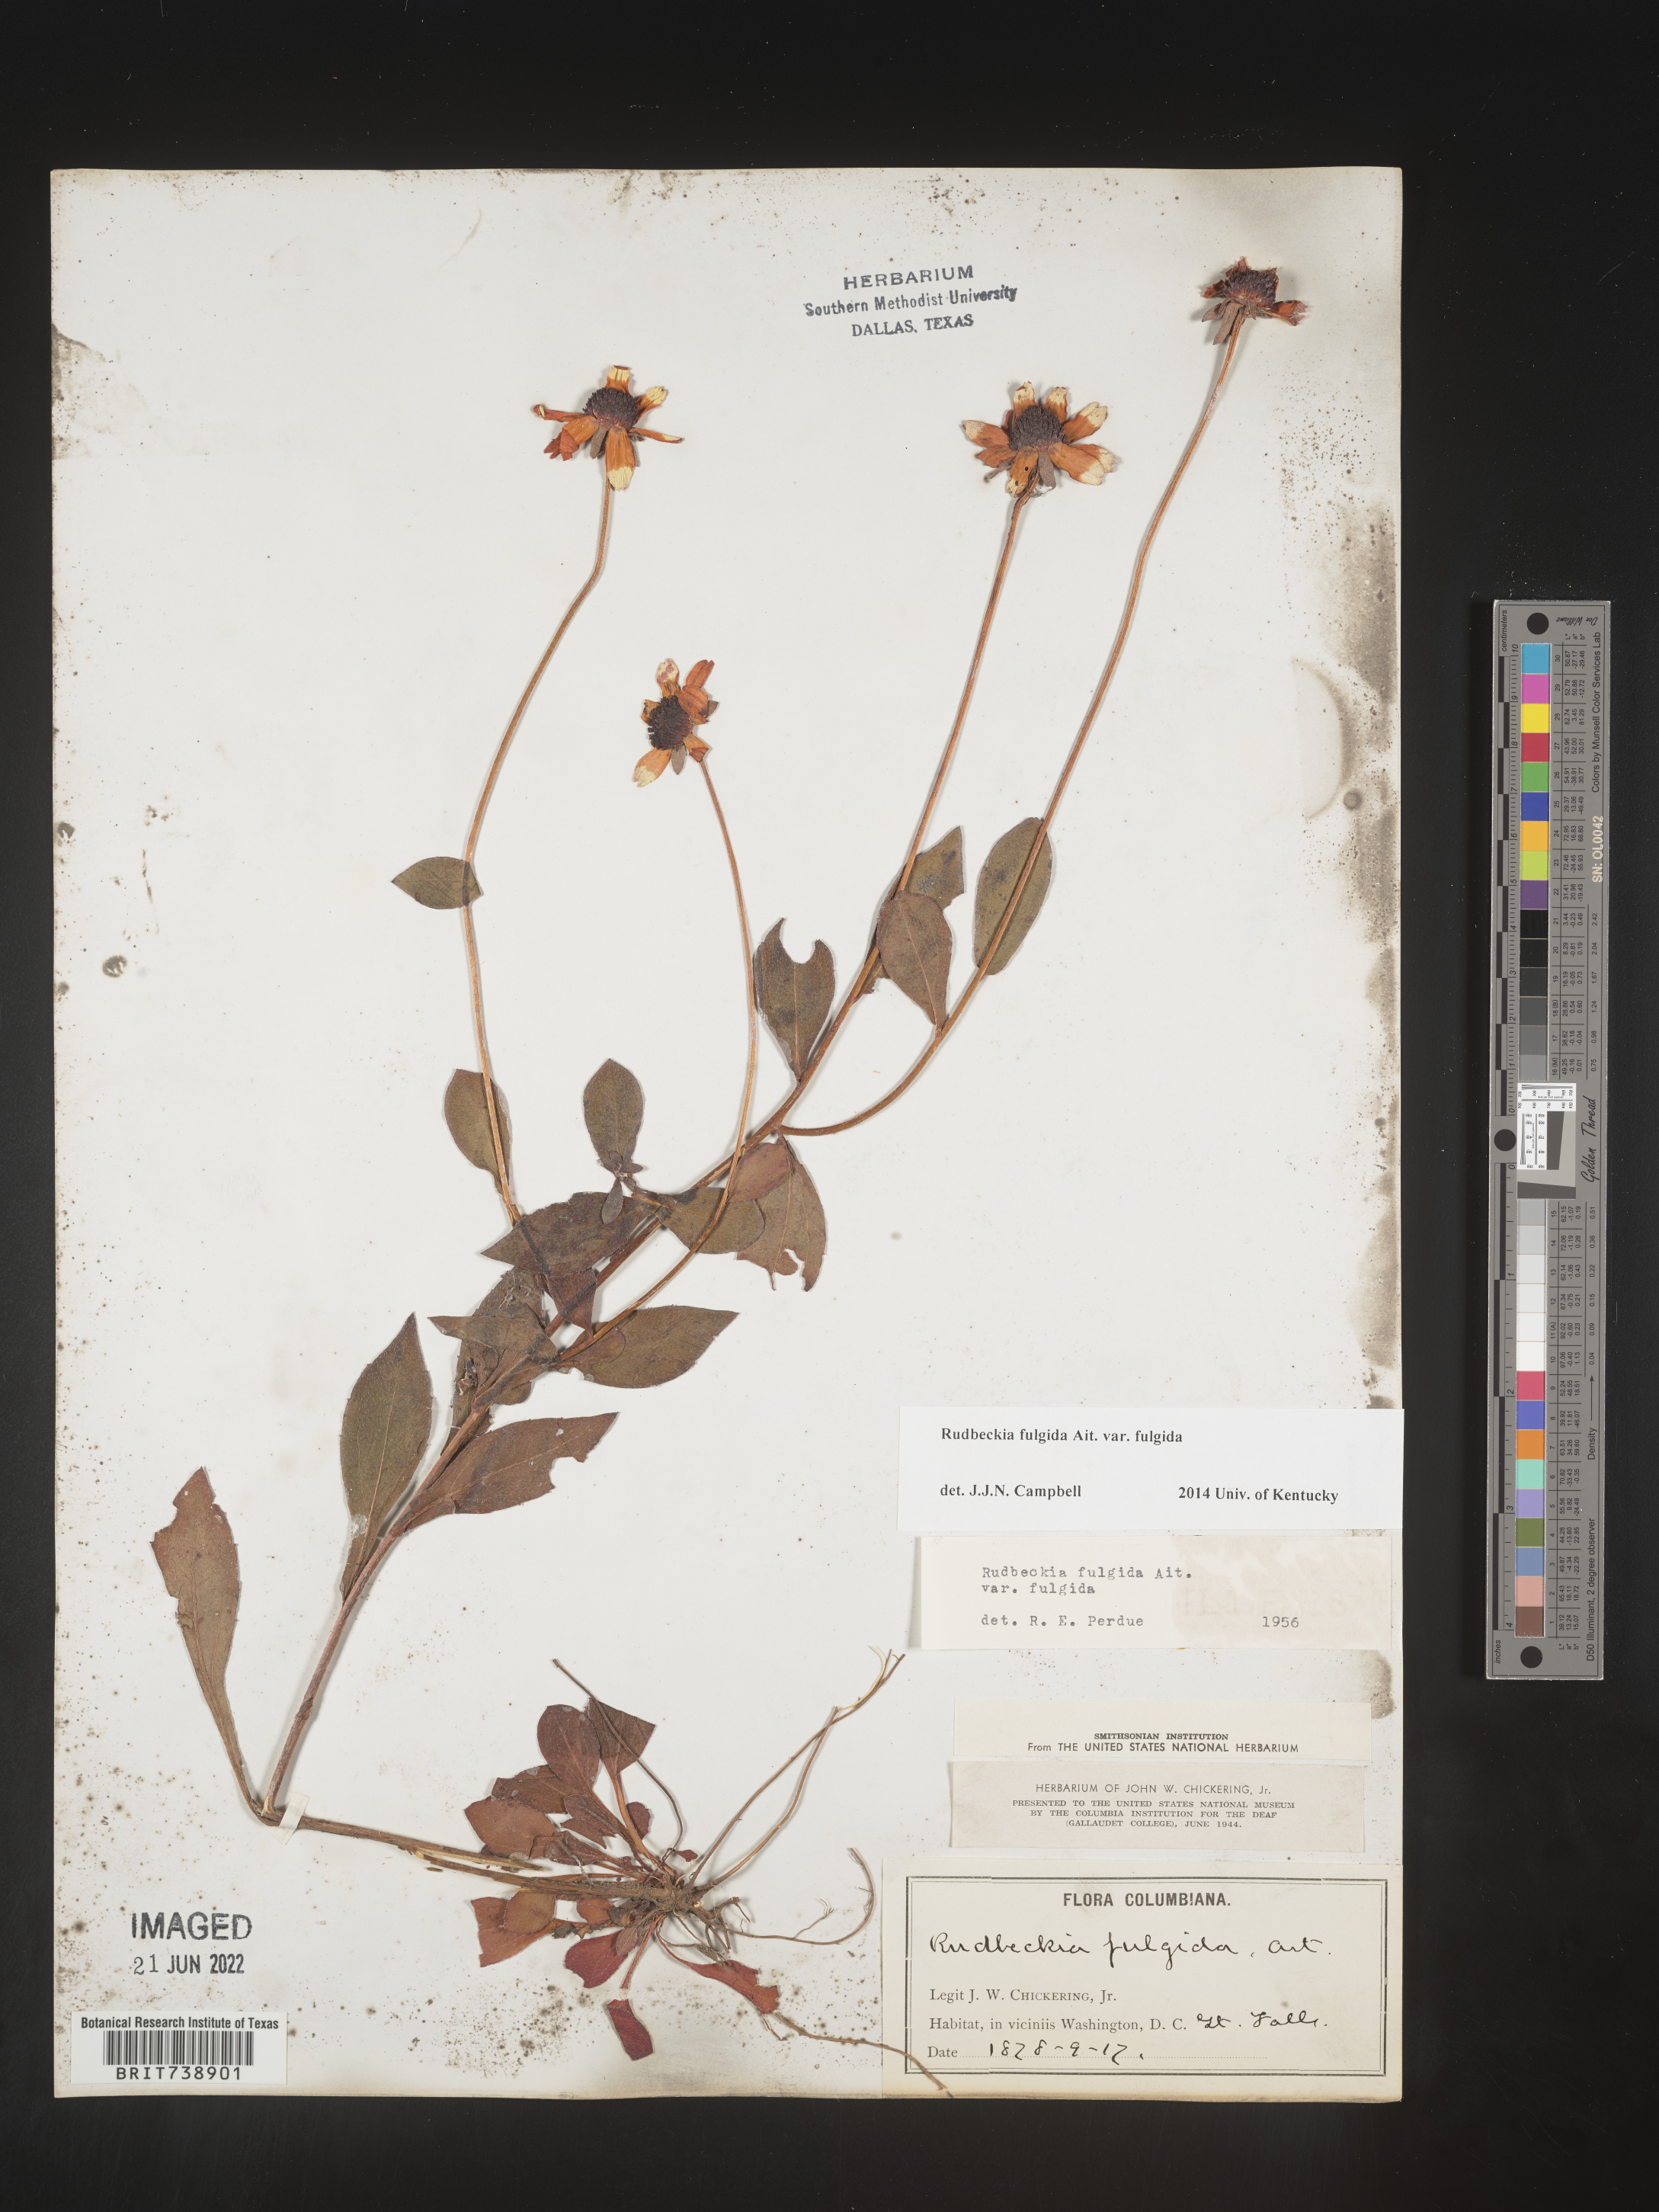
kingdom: Plantae
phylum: Tracheophyta
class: Magnoliopsida
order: Asterales
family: Asteraceae
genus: Rudbeckia
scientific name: Rudbeckia fulgida
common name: Perennial coneflower
